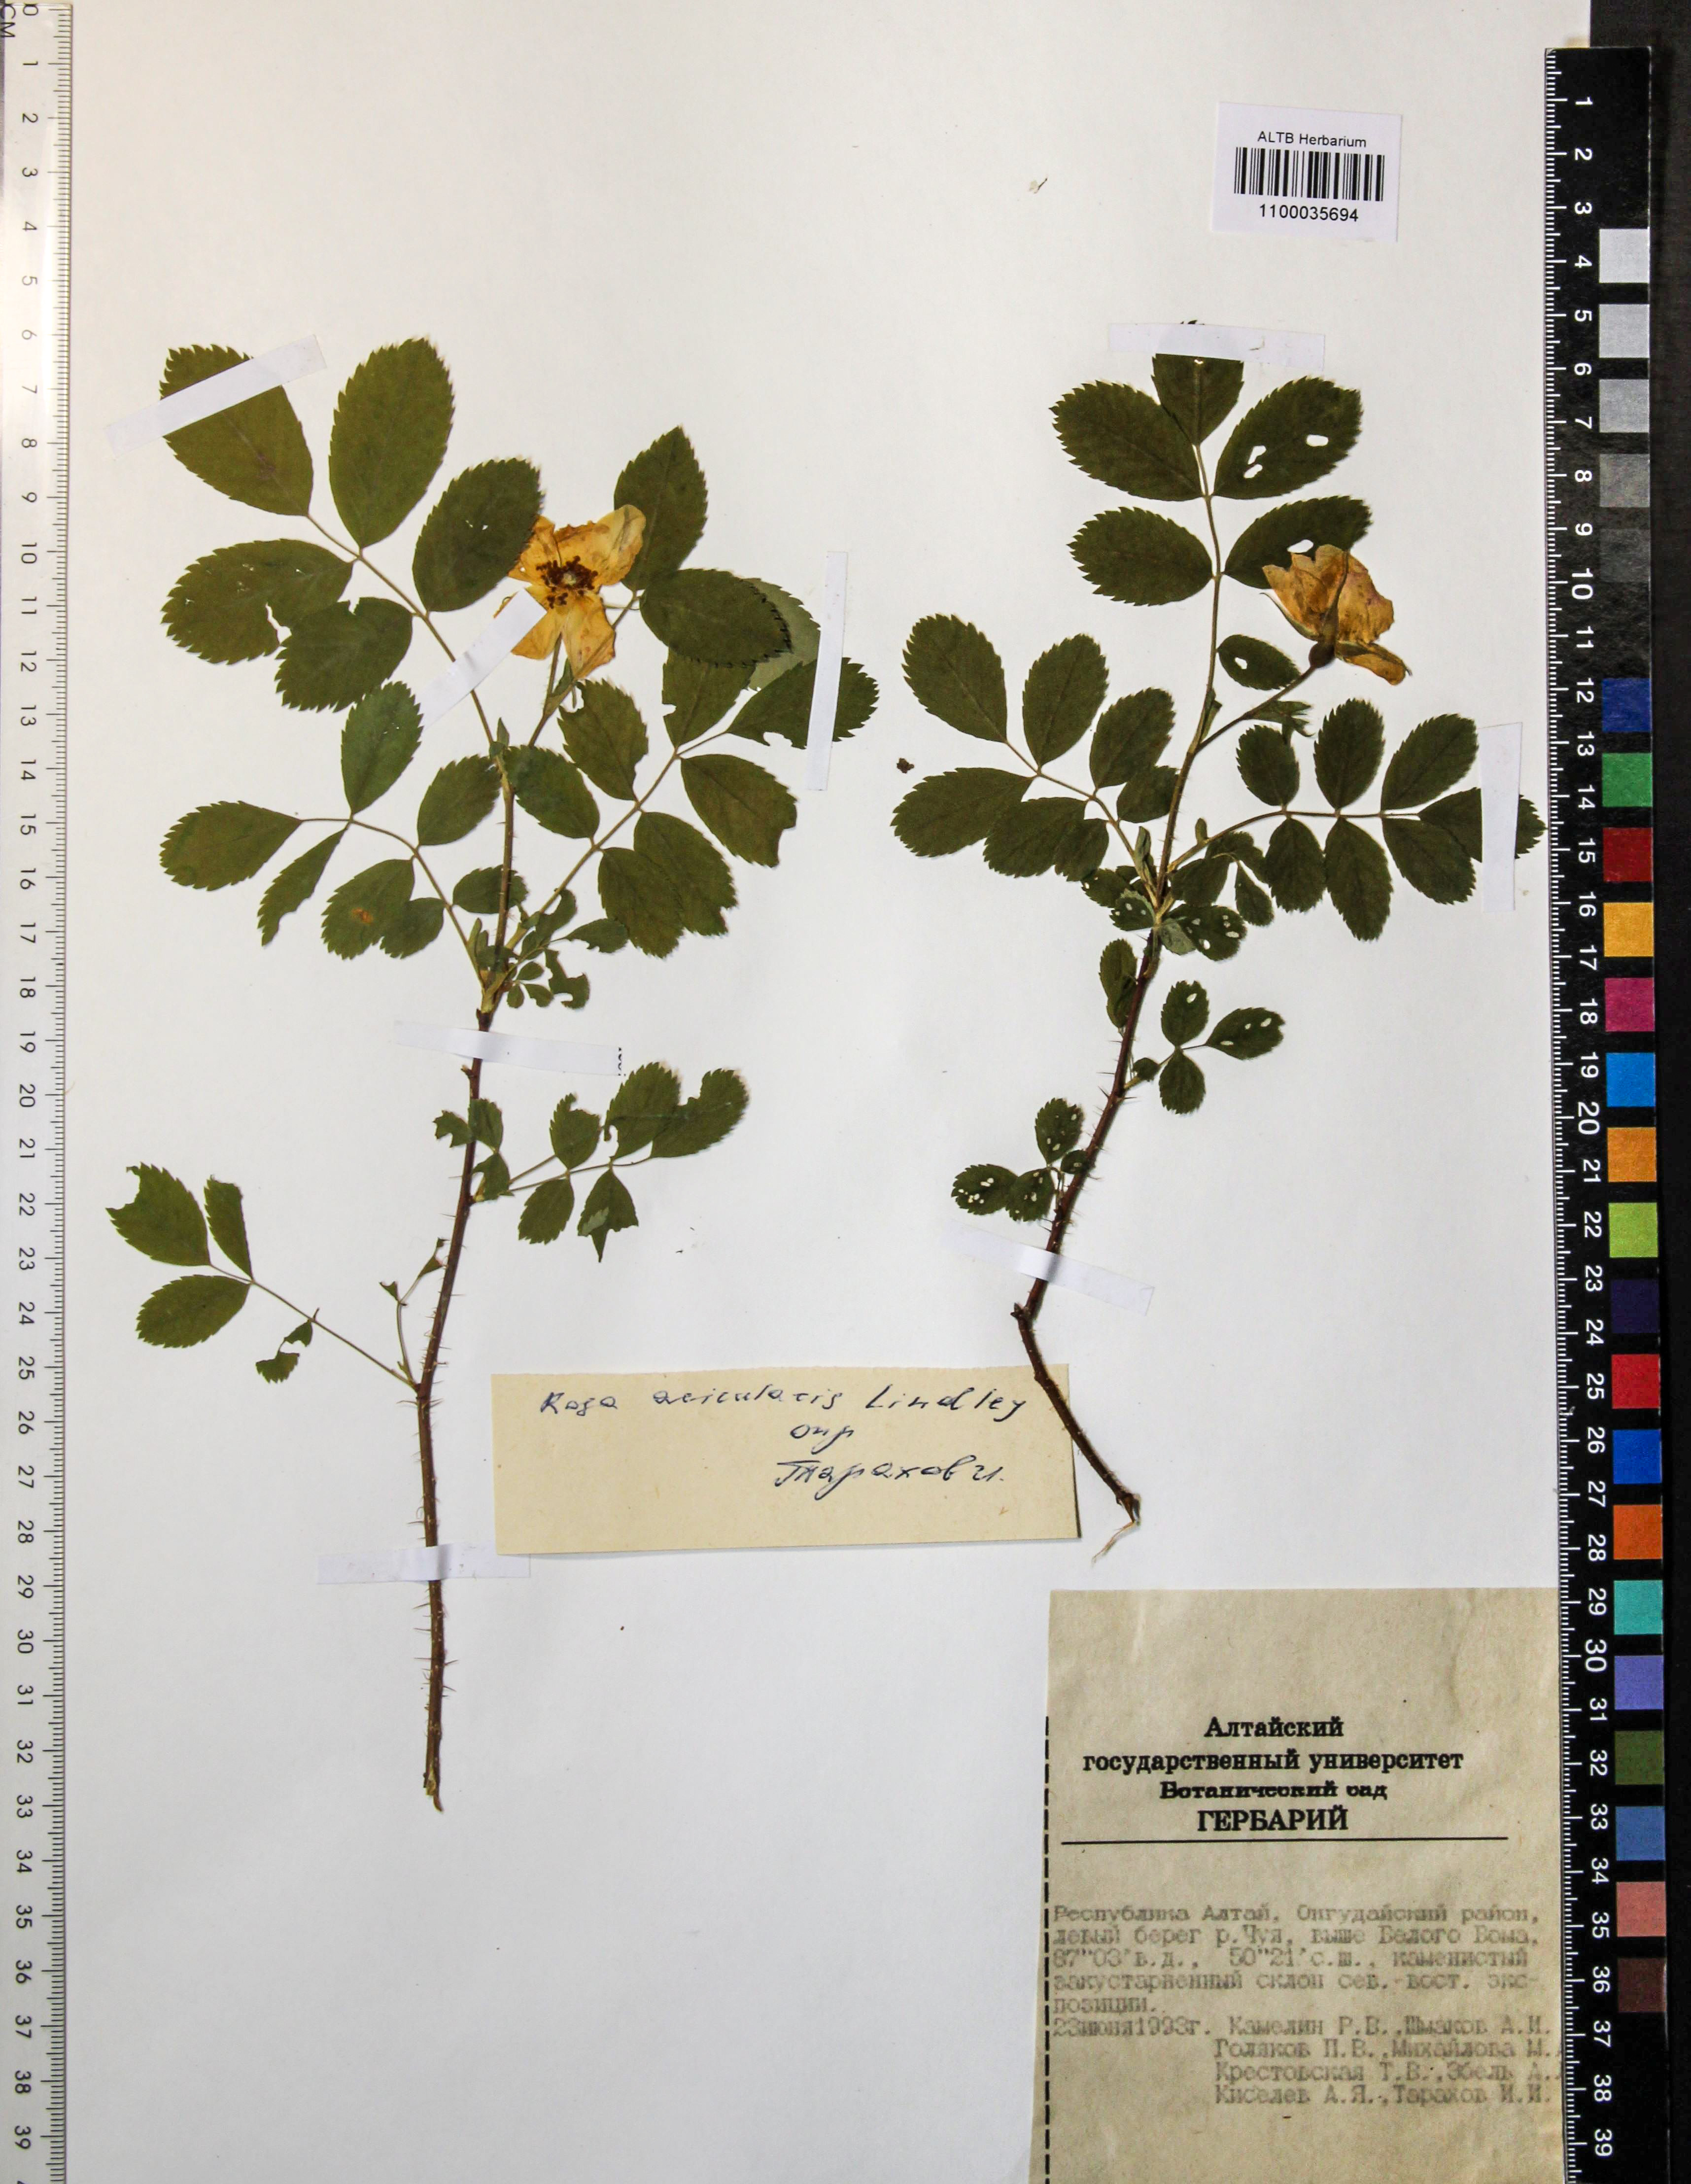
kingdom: Plantae
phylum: Tracheophyta
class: Magnoliopsida
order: Rosales
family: Rosaceae
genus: Rosa
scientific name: Rosa acicularis
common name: Prickly rose
